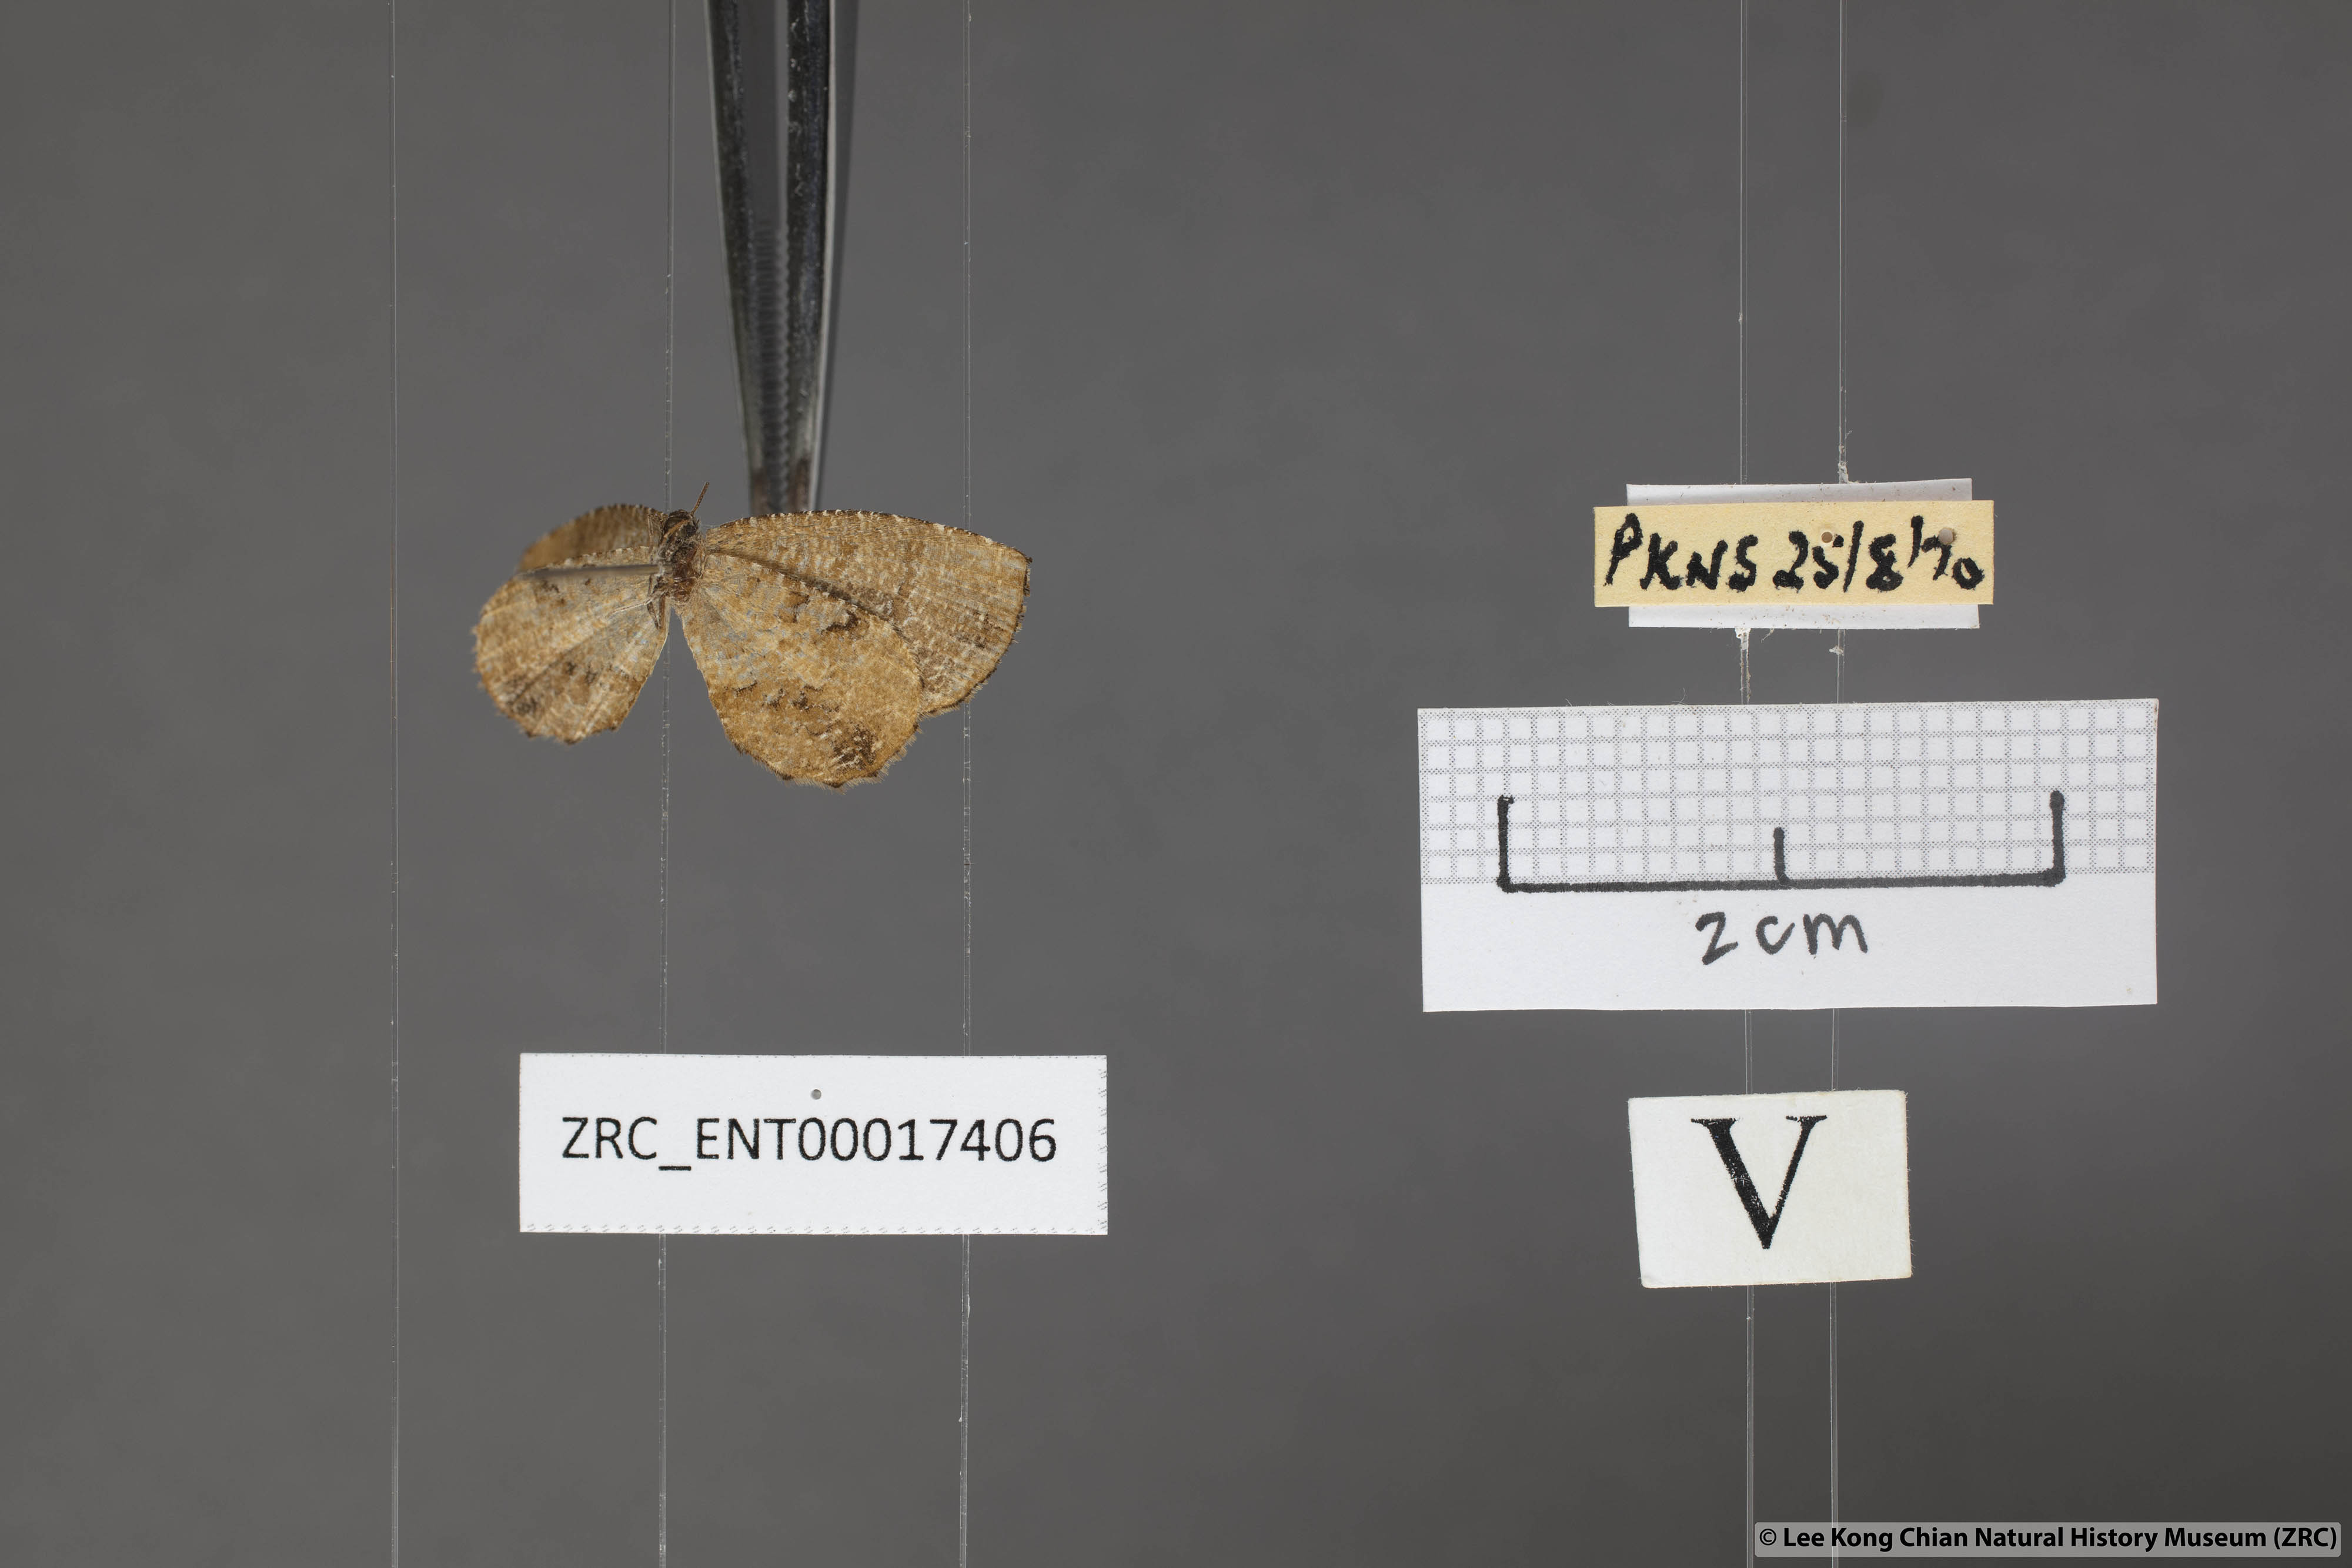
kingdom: Animalia
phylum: Arthropoda
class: Insecta
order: Lepidoptera
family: Lycaenidae
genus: Logania
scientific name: Logania distanti
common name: Dark mottle
